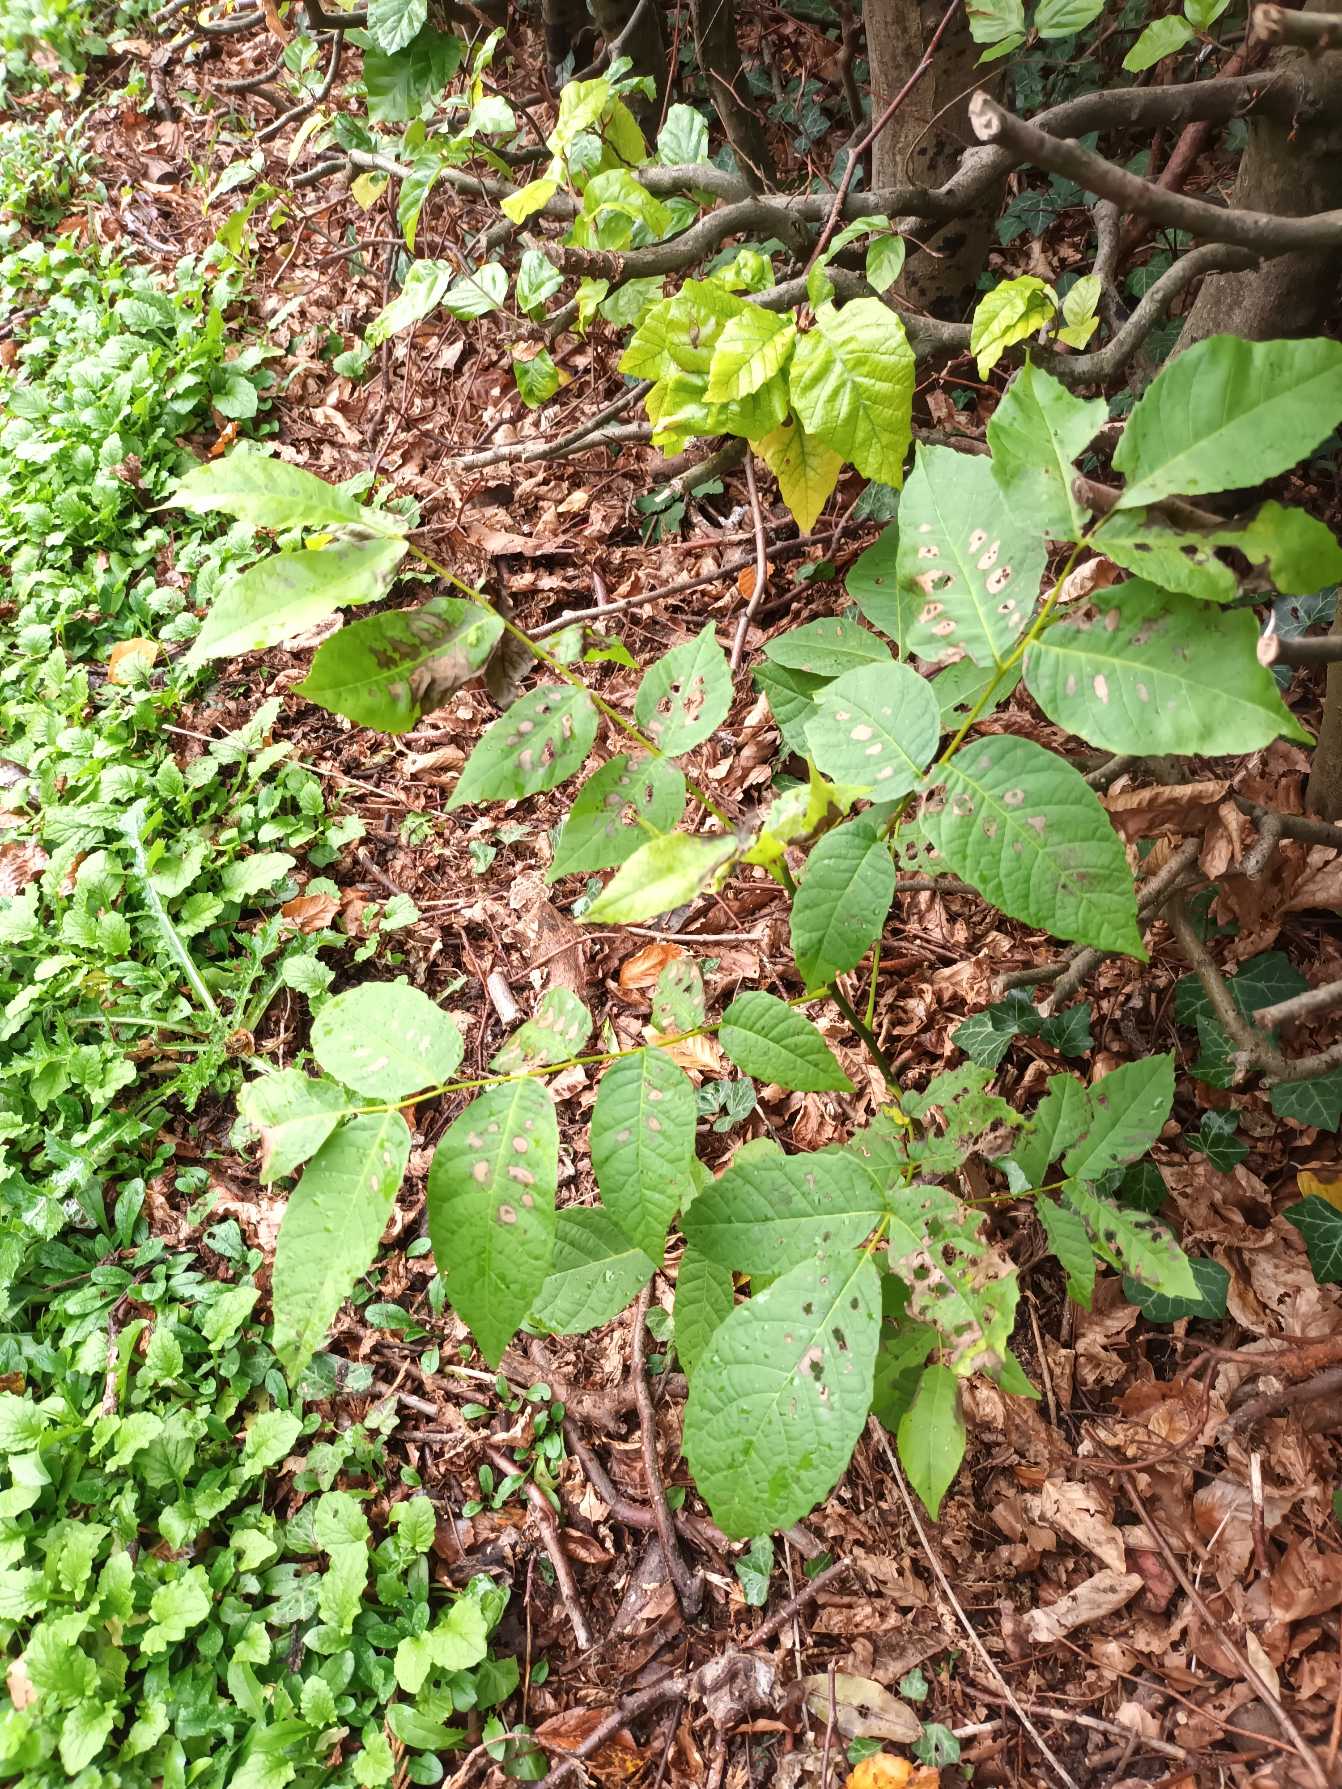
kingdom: Plantae
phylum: Tracheophyta
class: Magnoliopsida
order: Fagales
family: Juglandaceae
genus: Juglans
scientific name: Juglans regia
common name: Almindelig valnød
